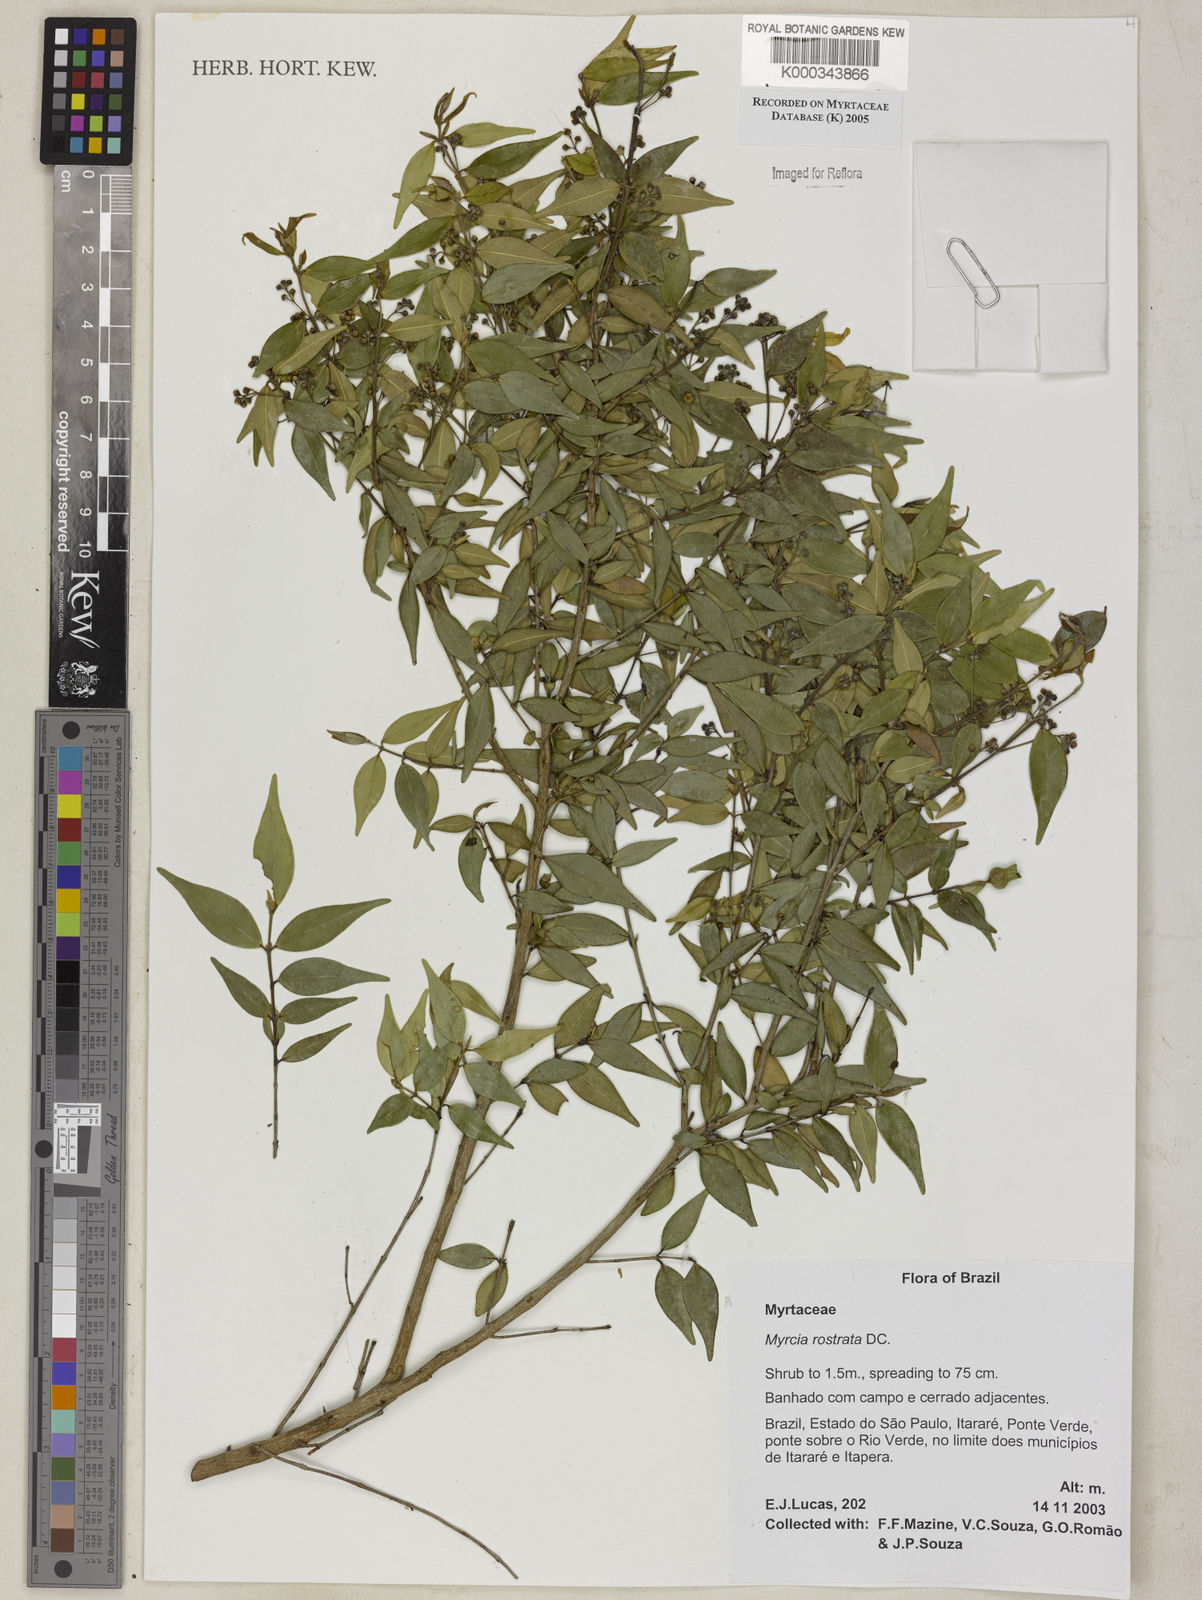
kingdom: Plantae
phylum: Tracheophyta
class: Magnoliopsida
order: Myrtales
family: Myrtaceae
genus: Myrcia
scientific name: Myrcia splendens
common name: Surinam cherry
